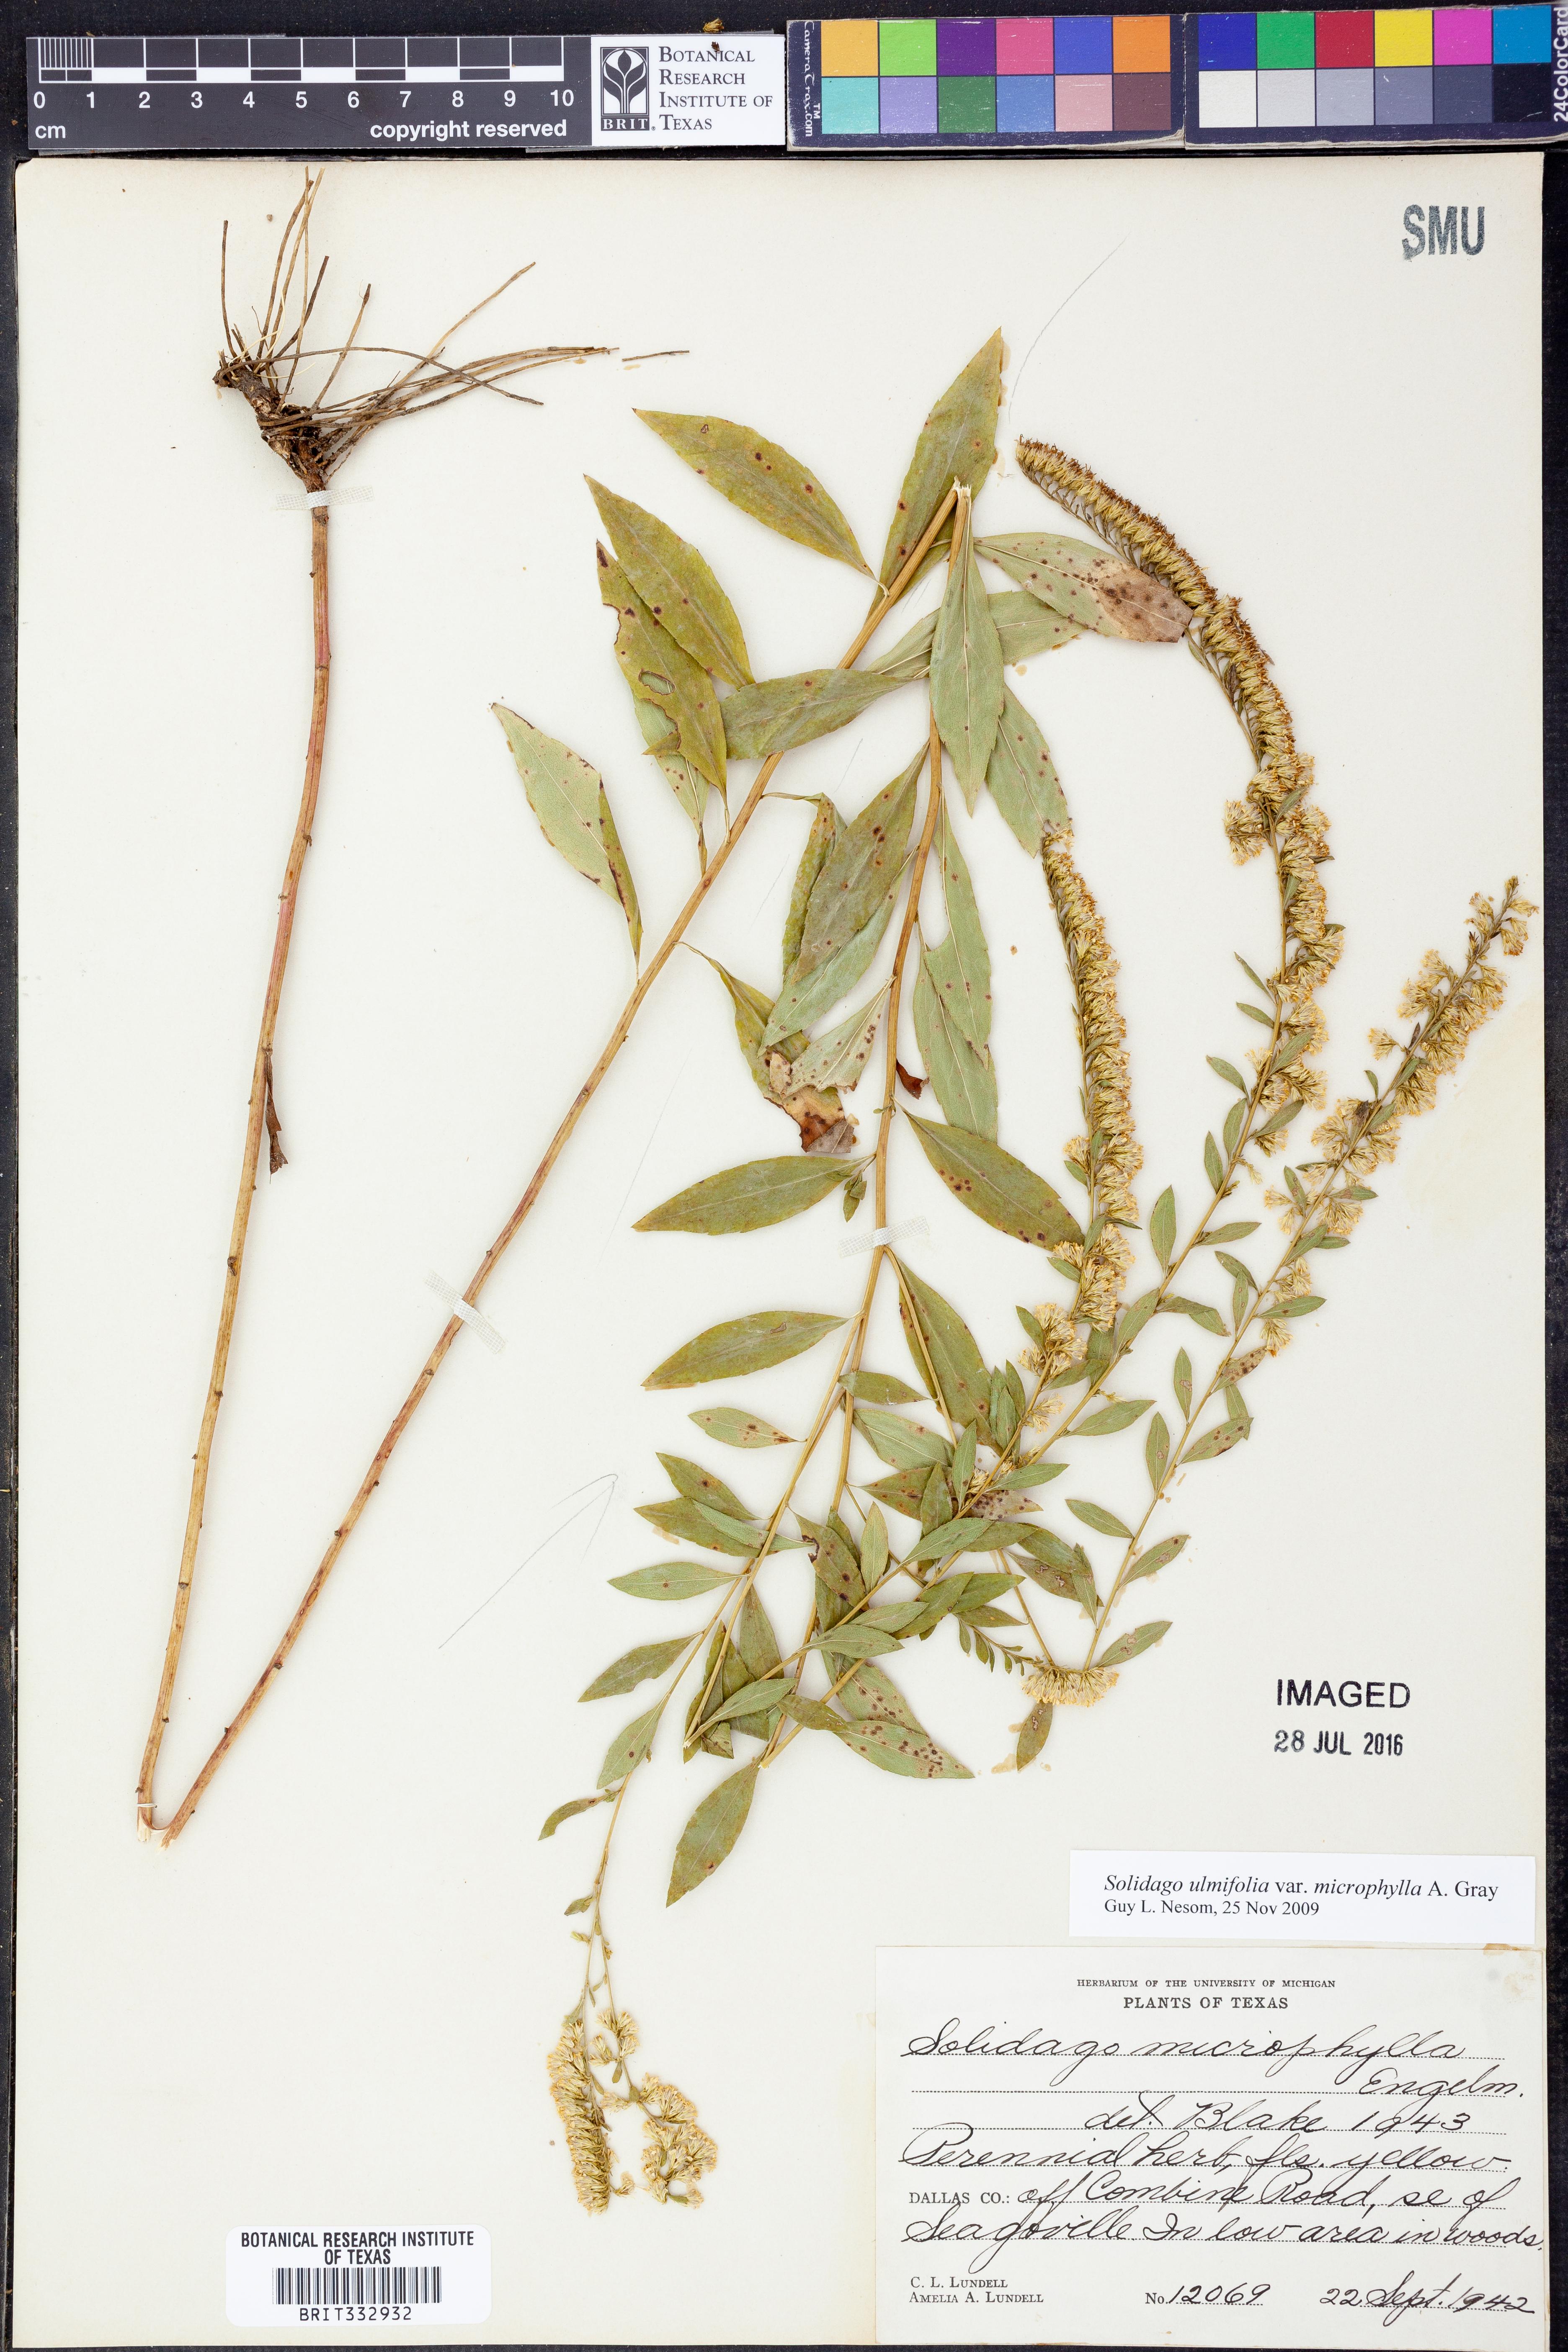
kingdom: Plantae
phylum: Tracheophyta
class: Magnoliopsida
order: Asterales
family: Asteraceae
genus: Solidago
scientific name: Solidago delicatula
